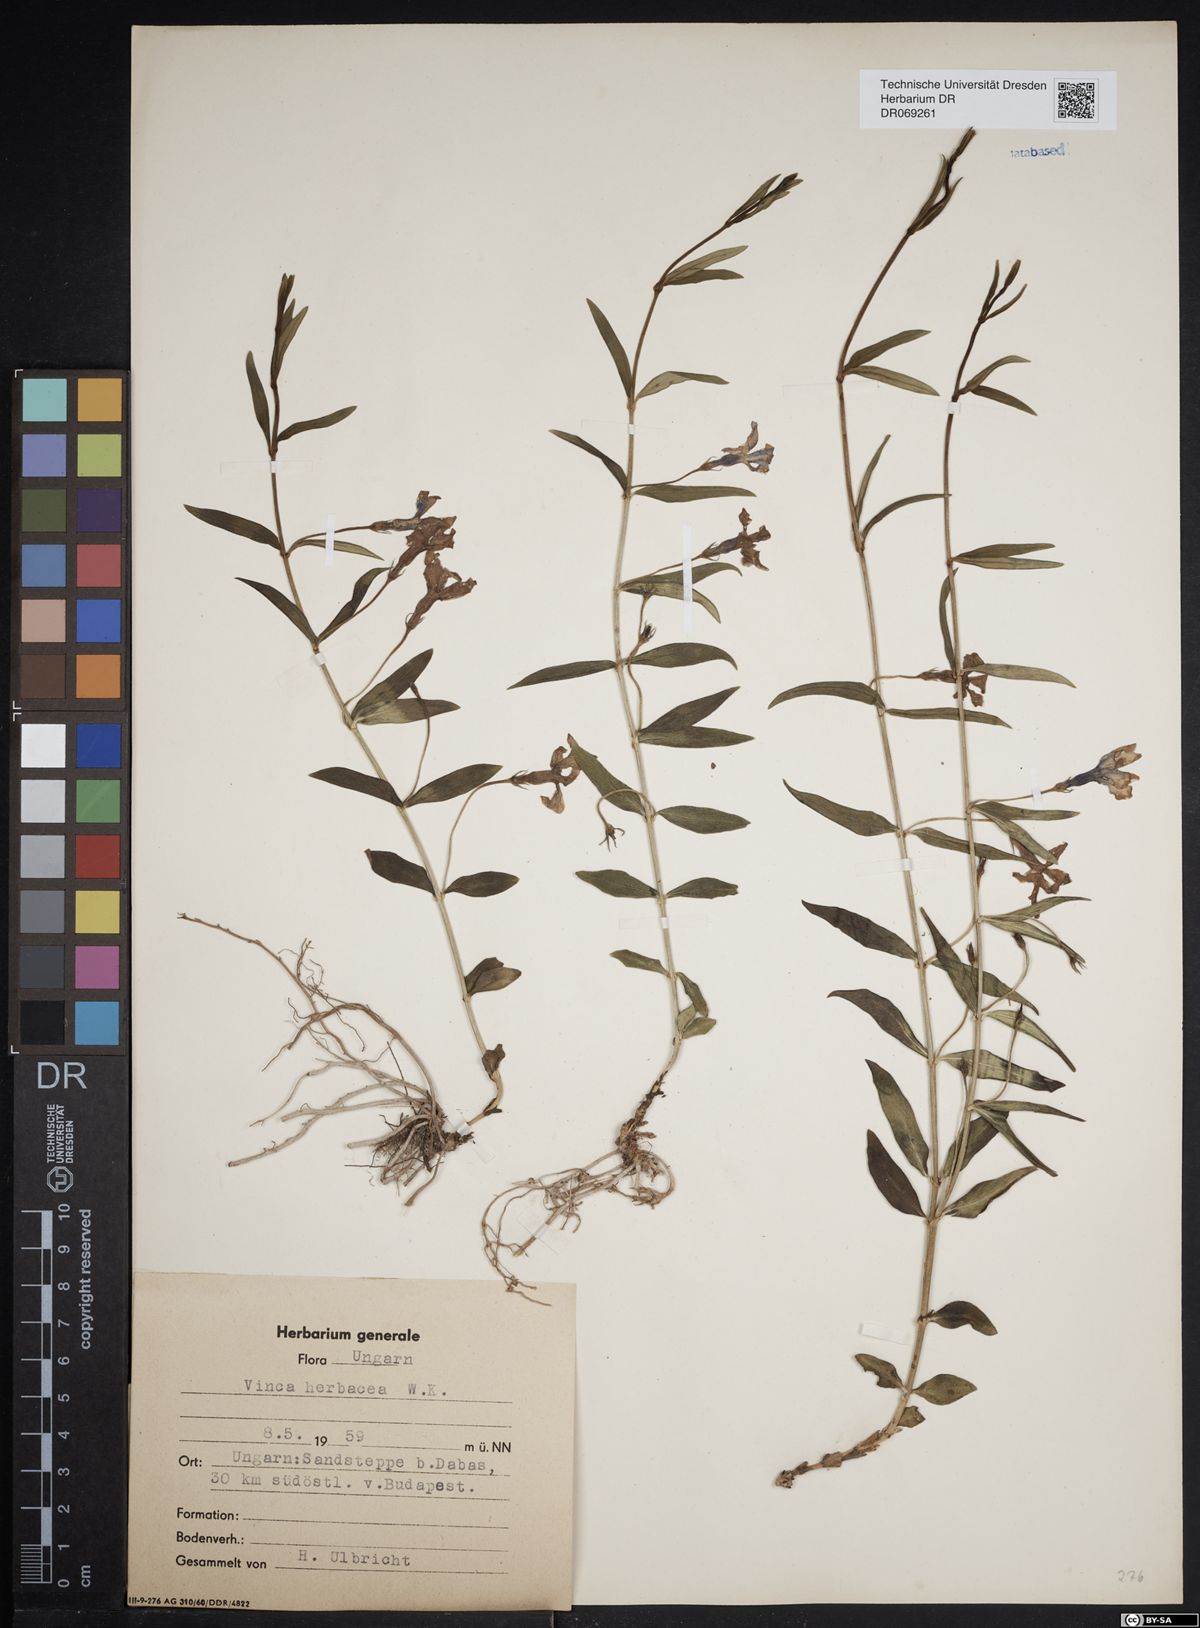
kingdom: Plantae
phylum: Tracheophyta
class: Magnoliopsida
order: Gentianales
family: Apocynaceae
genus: Vinca
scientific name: Vinca herbacea
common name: Herbaceous periwinkle
